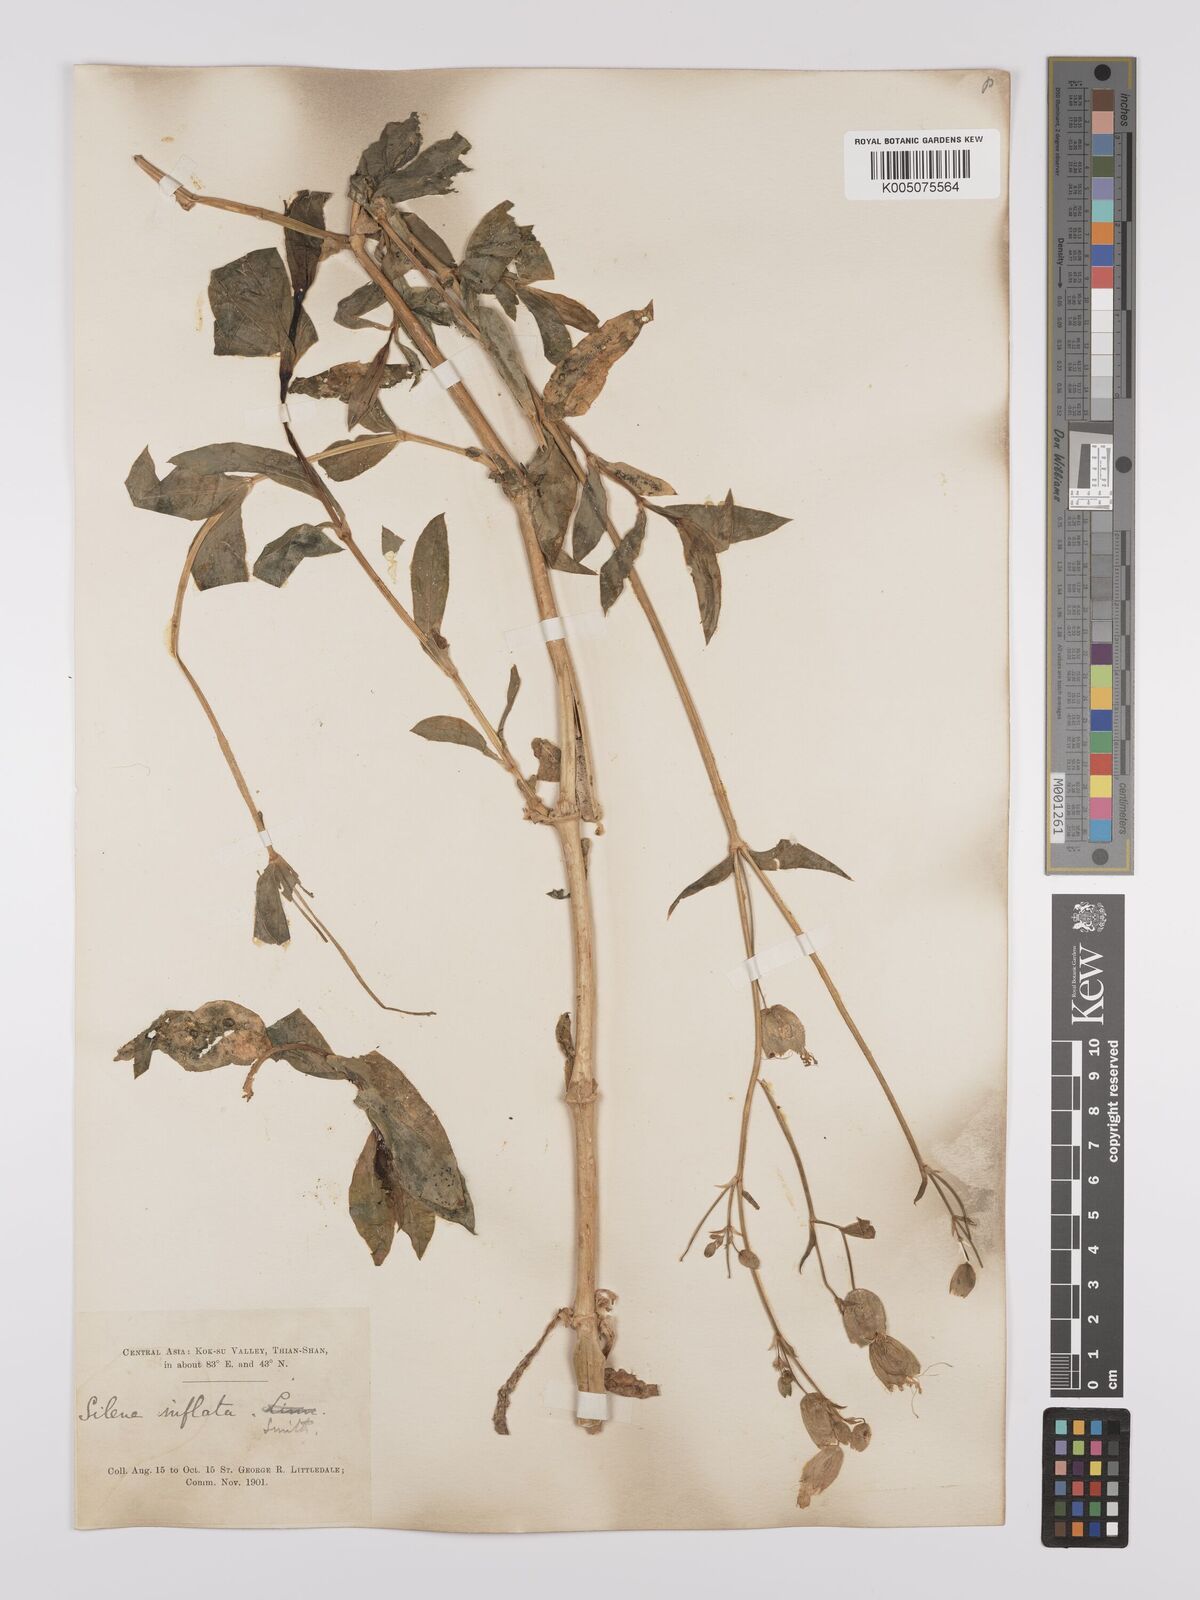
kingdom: Plantae
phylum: Tracheophyta
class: Magnoliopsida
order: Caryophyllales
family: Caryophyllaceae
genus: Silene
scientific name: Silene vulgaris
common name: Bladder campion
